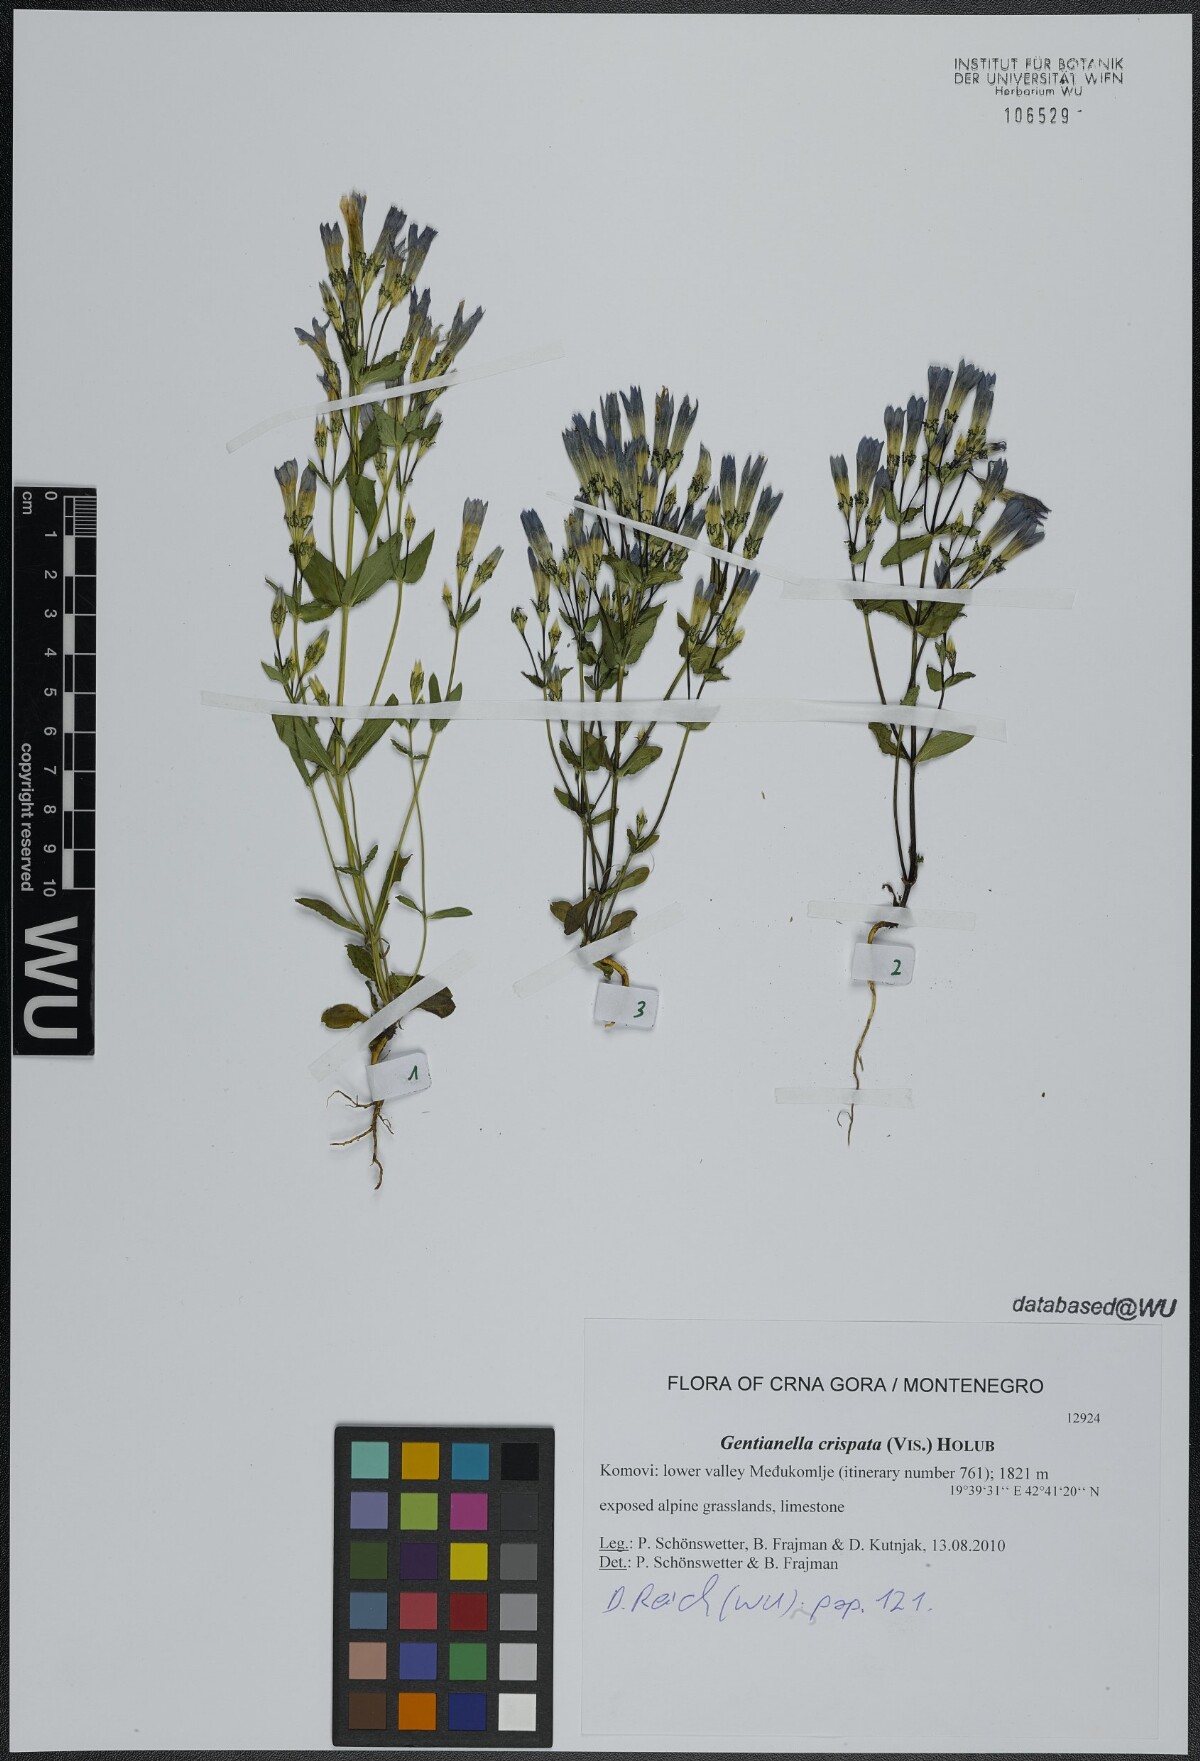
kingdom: Plantae
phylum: Tracheophyta
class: Magnoliopsida
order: Gentianales
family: Gentianaceae
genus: Gentianella
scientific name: Gentianella crispata
